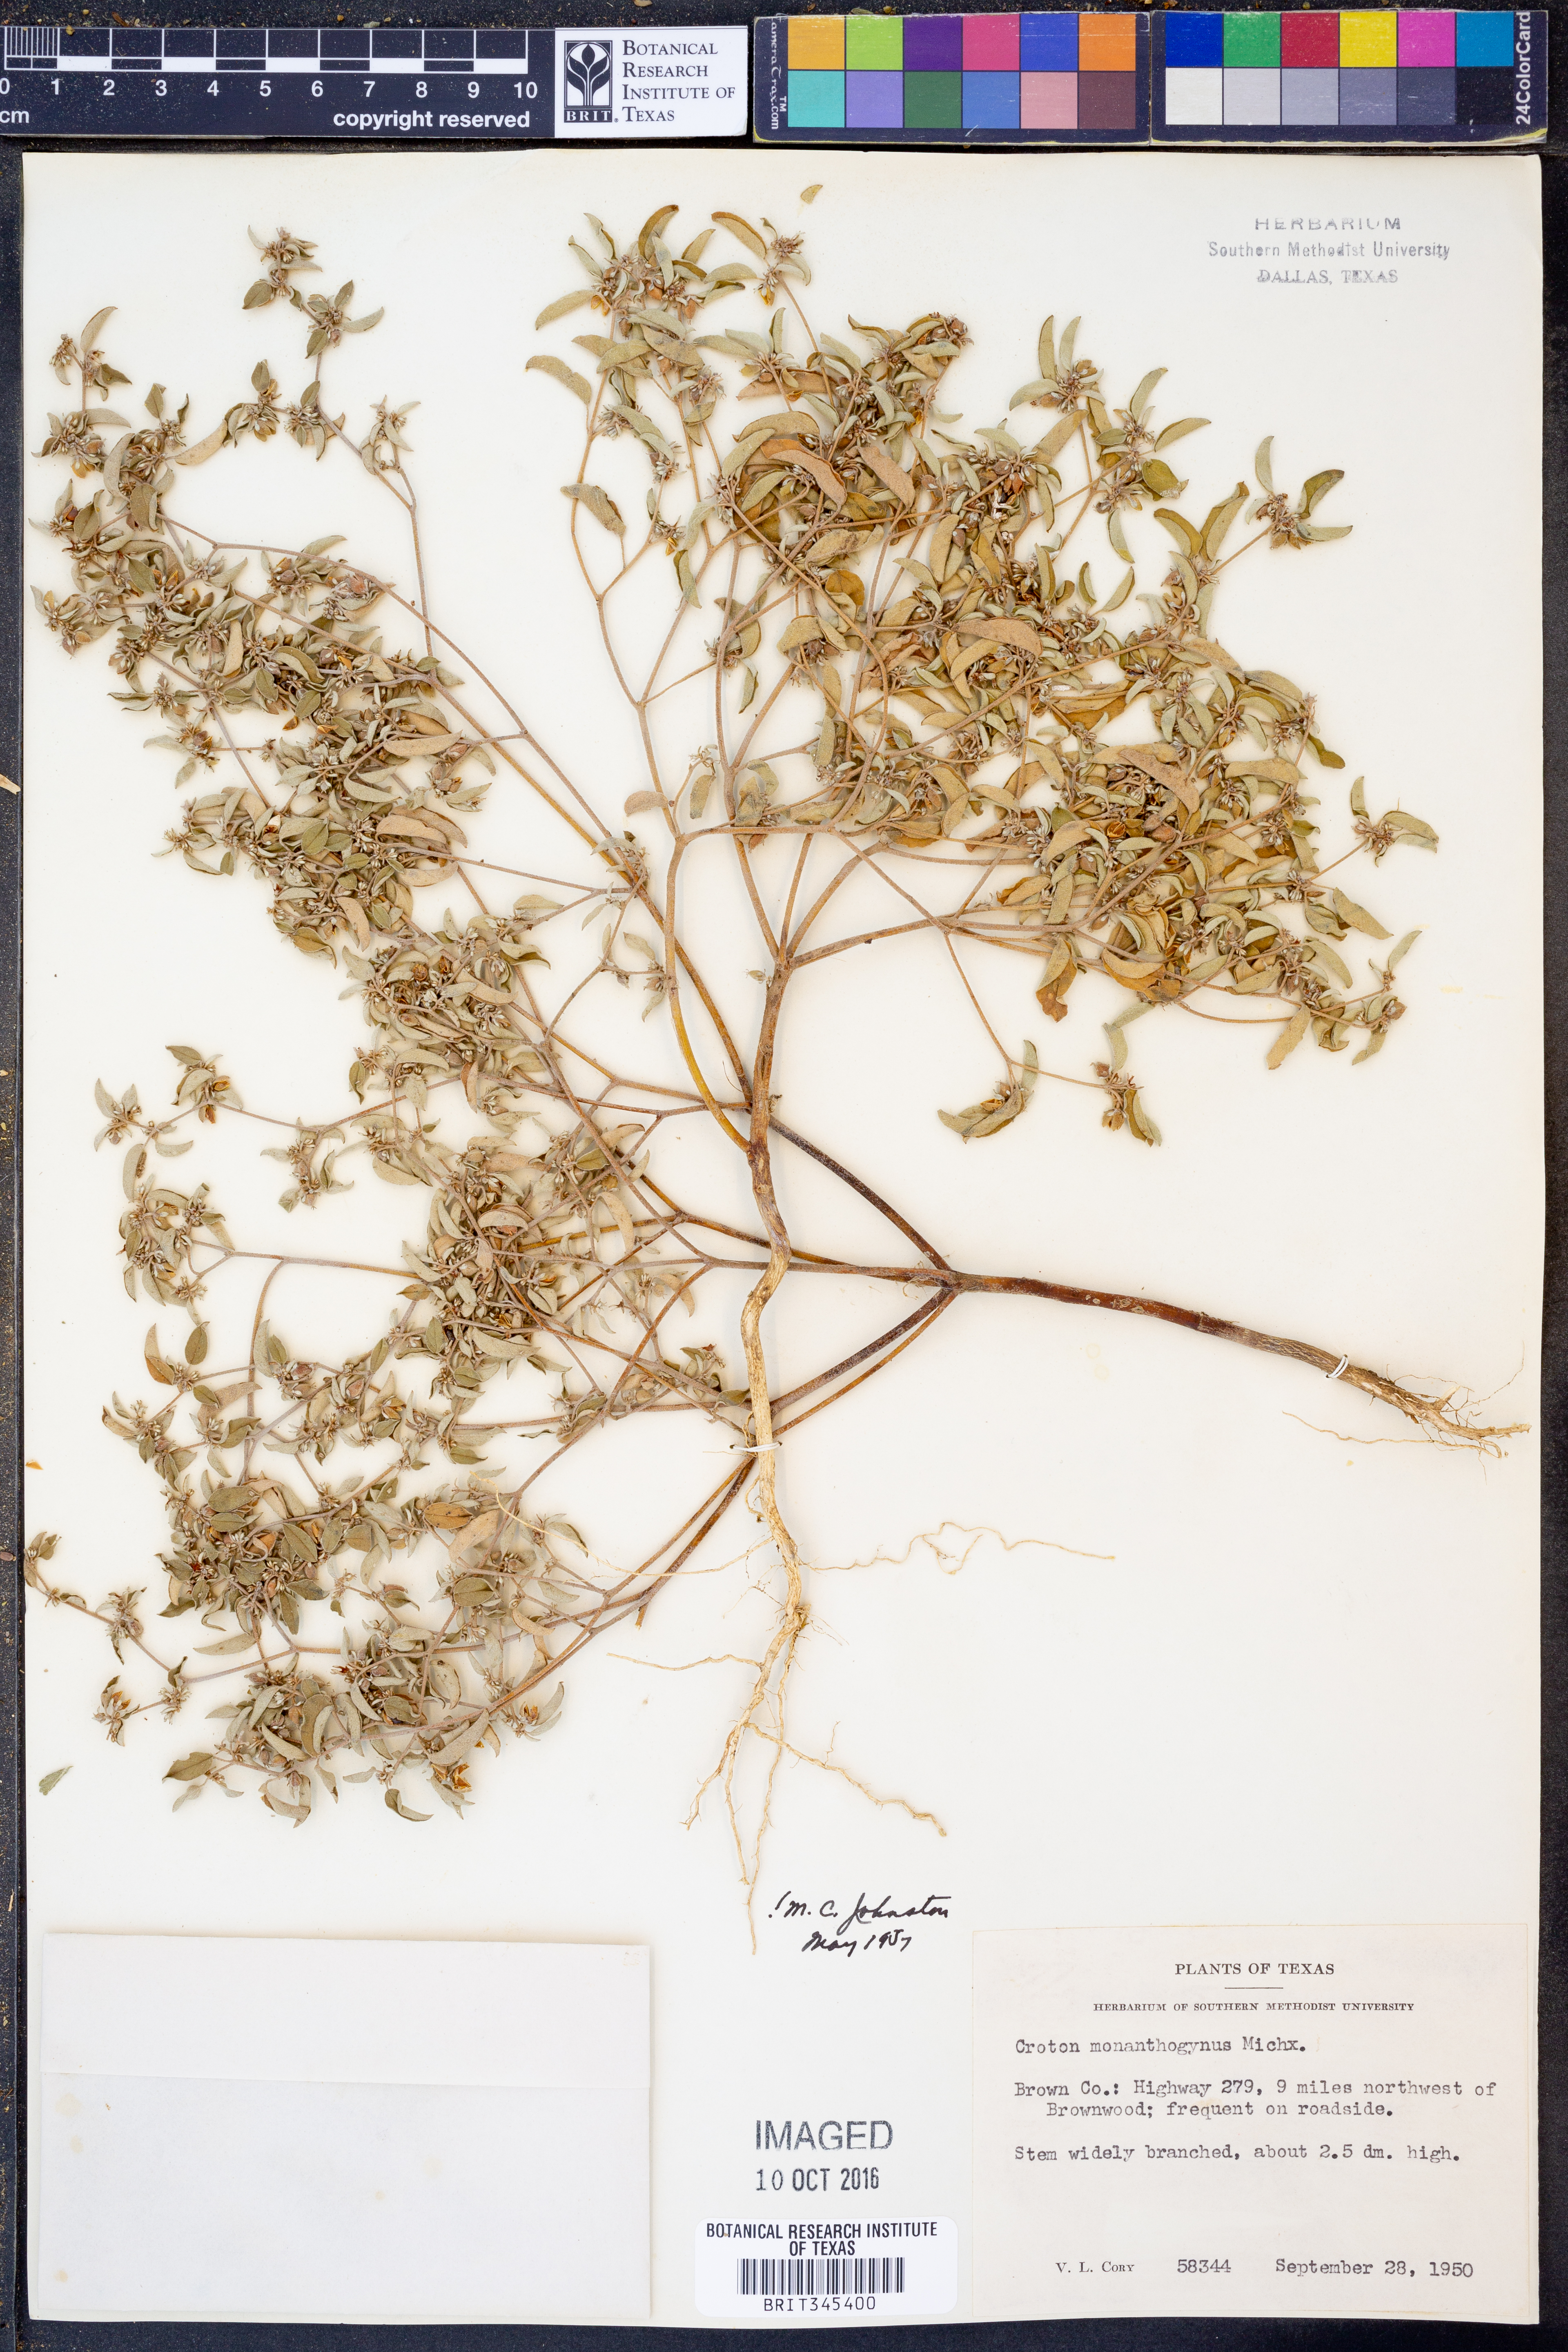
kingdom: Plantae
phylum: Tracheophyta
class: Magnoliopsida
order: Malpighiales
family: Euphorbiaceae
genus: Croton
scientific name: Croton monanthogynus
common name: One-seed croton
